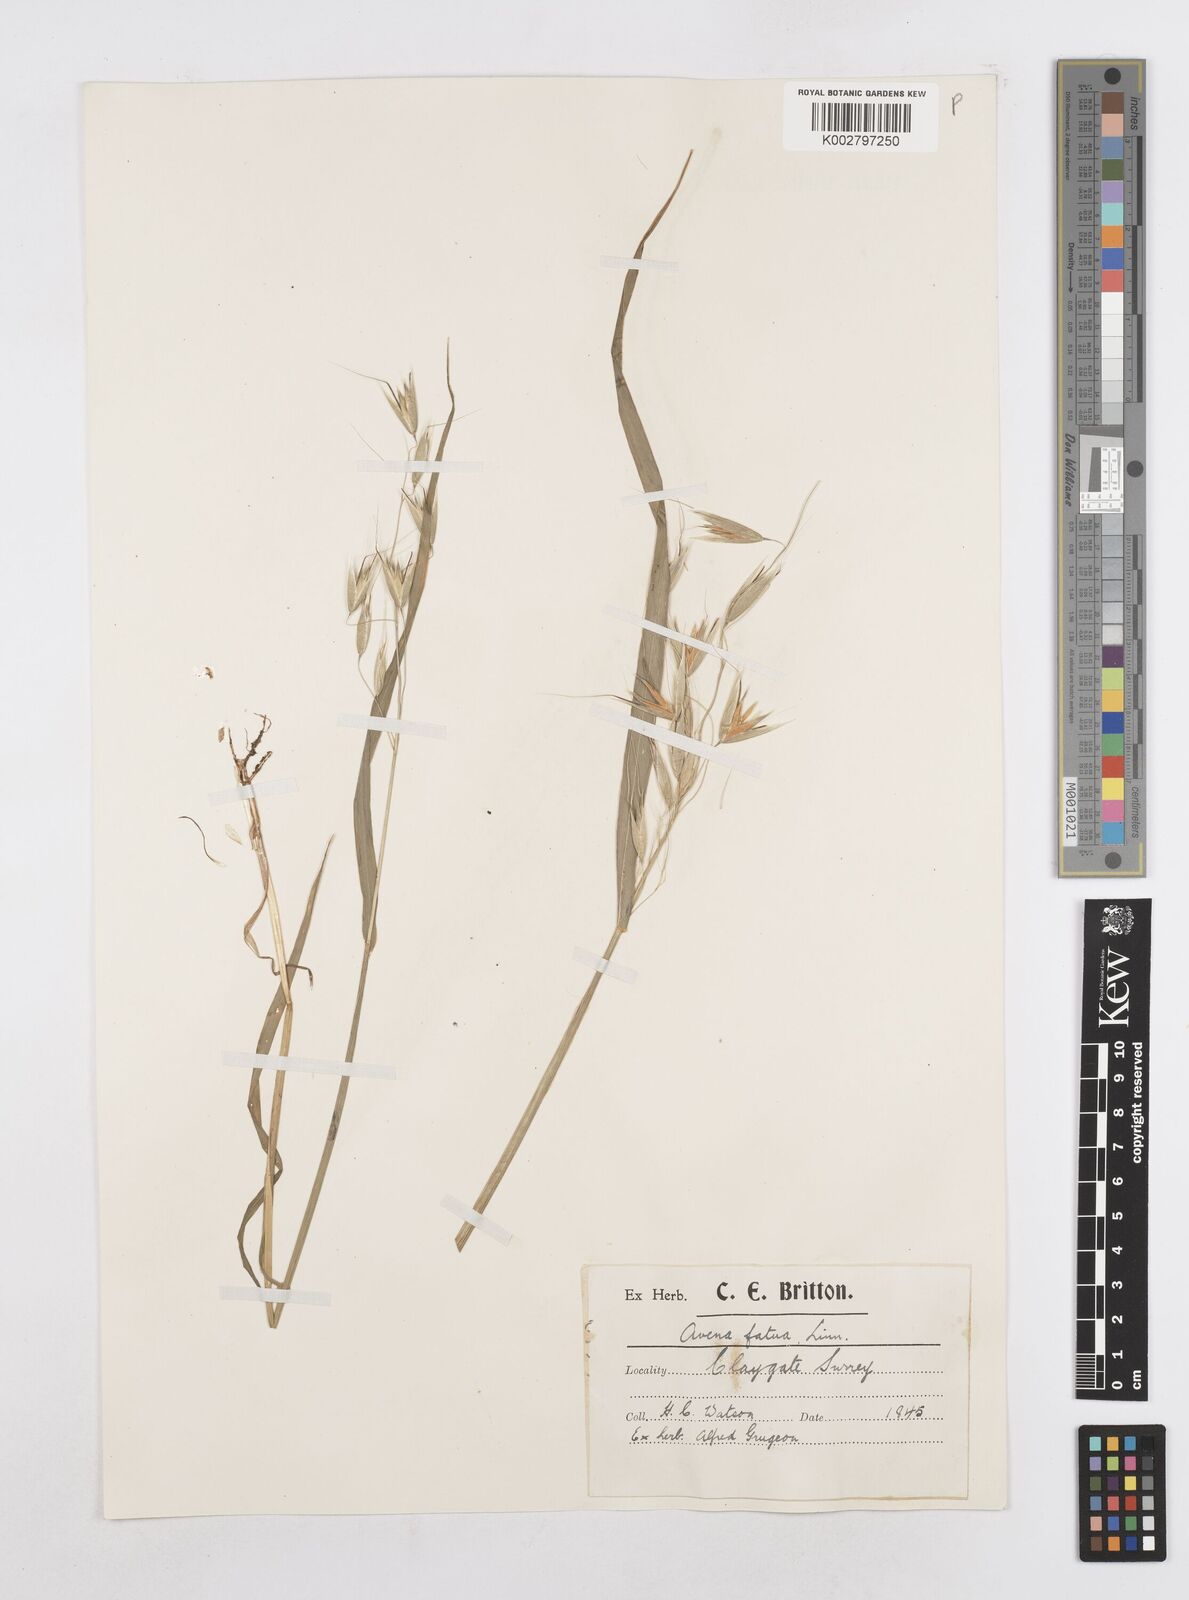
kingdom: Plantae
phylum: Tracheophyta
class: Liliopsida
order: Poales
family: Poaceae
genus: Avena
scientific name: Avena fatua
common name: Wild oat
